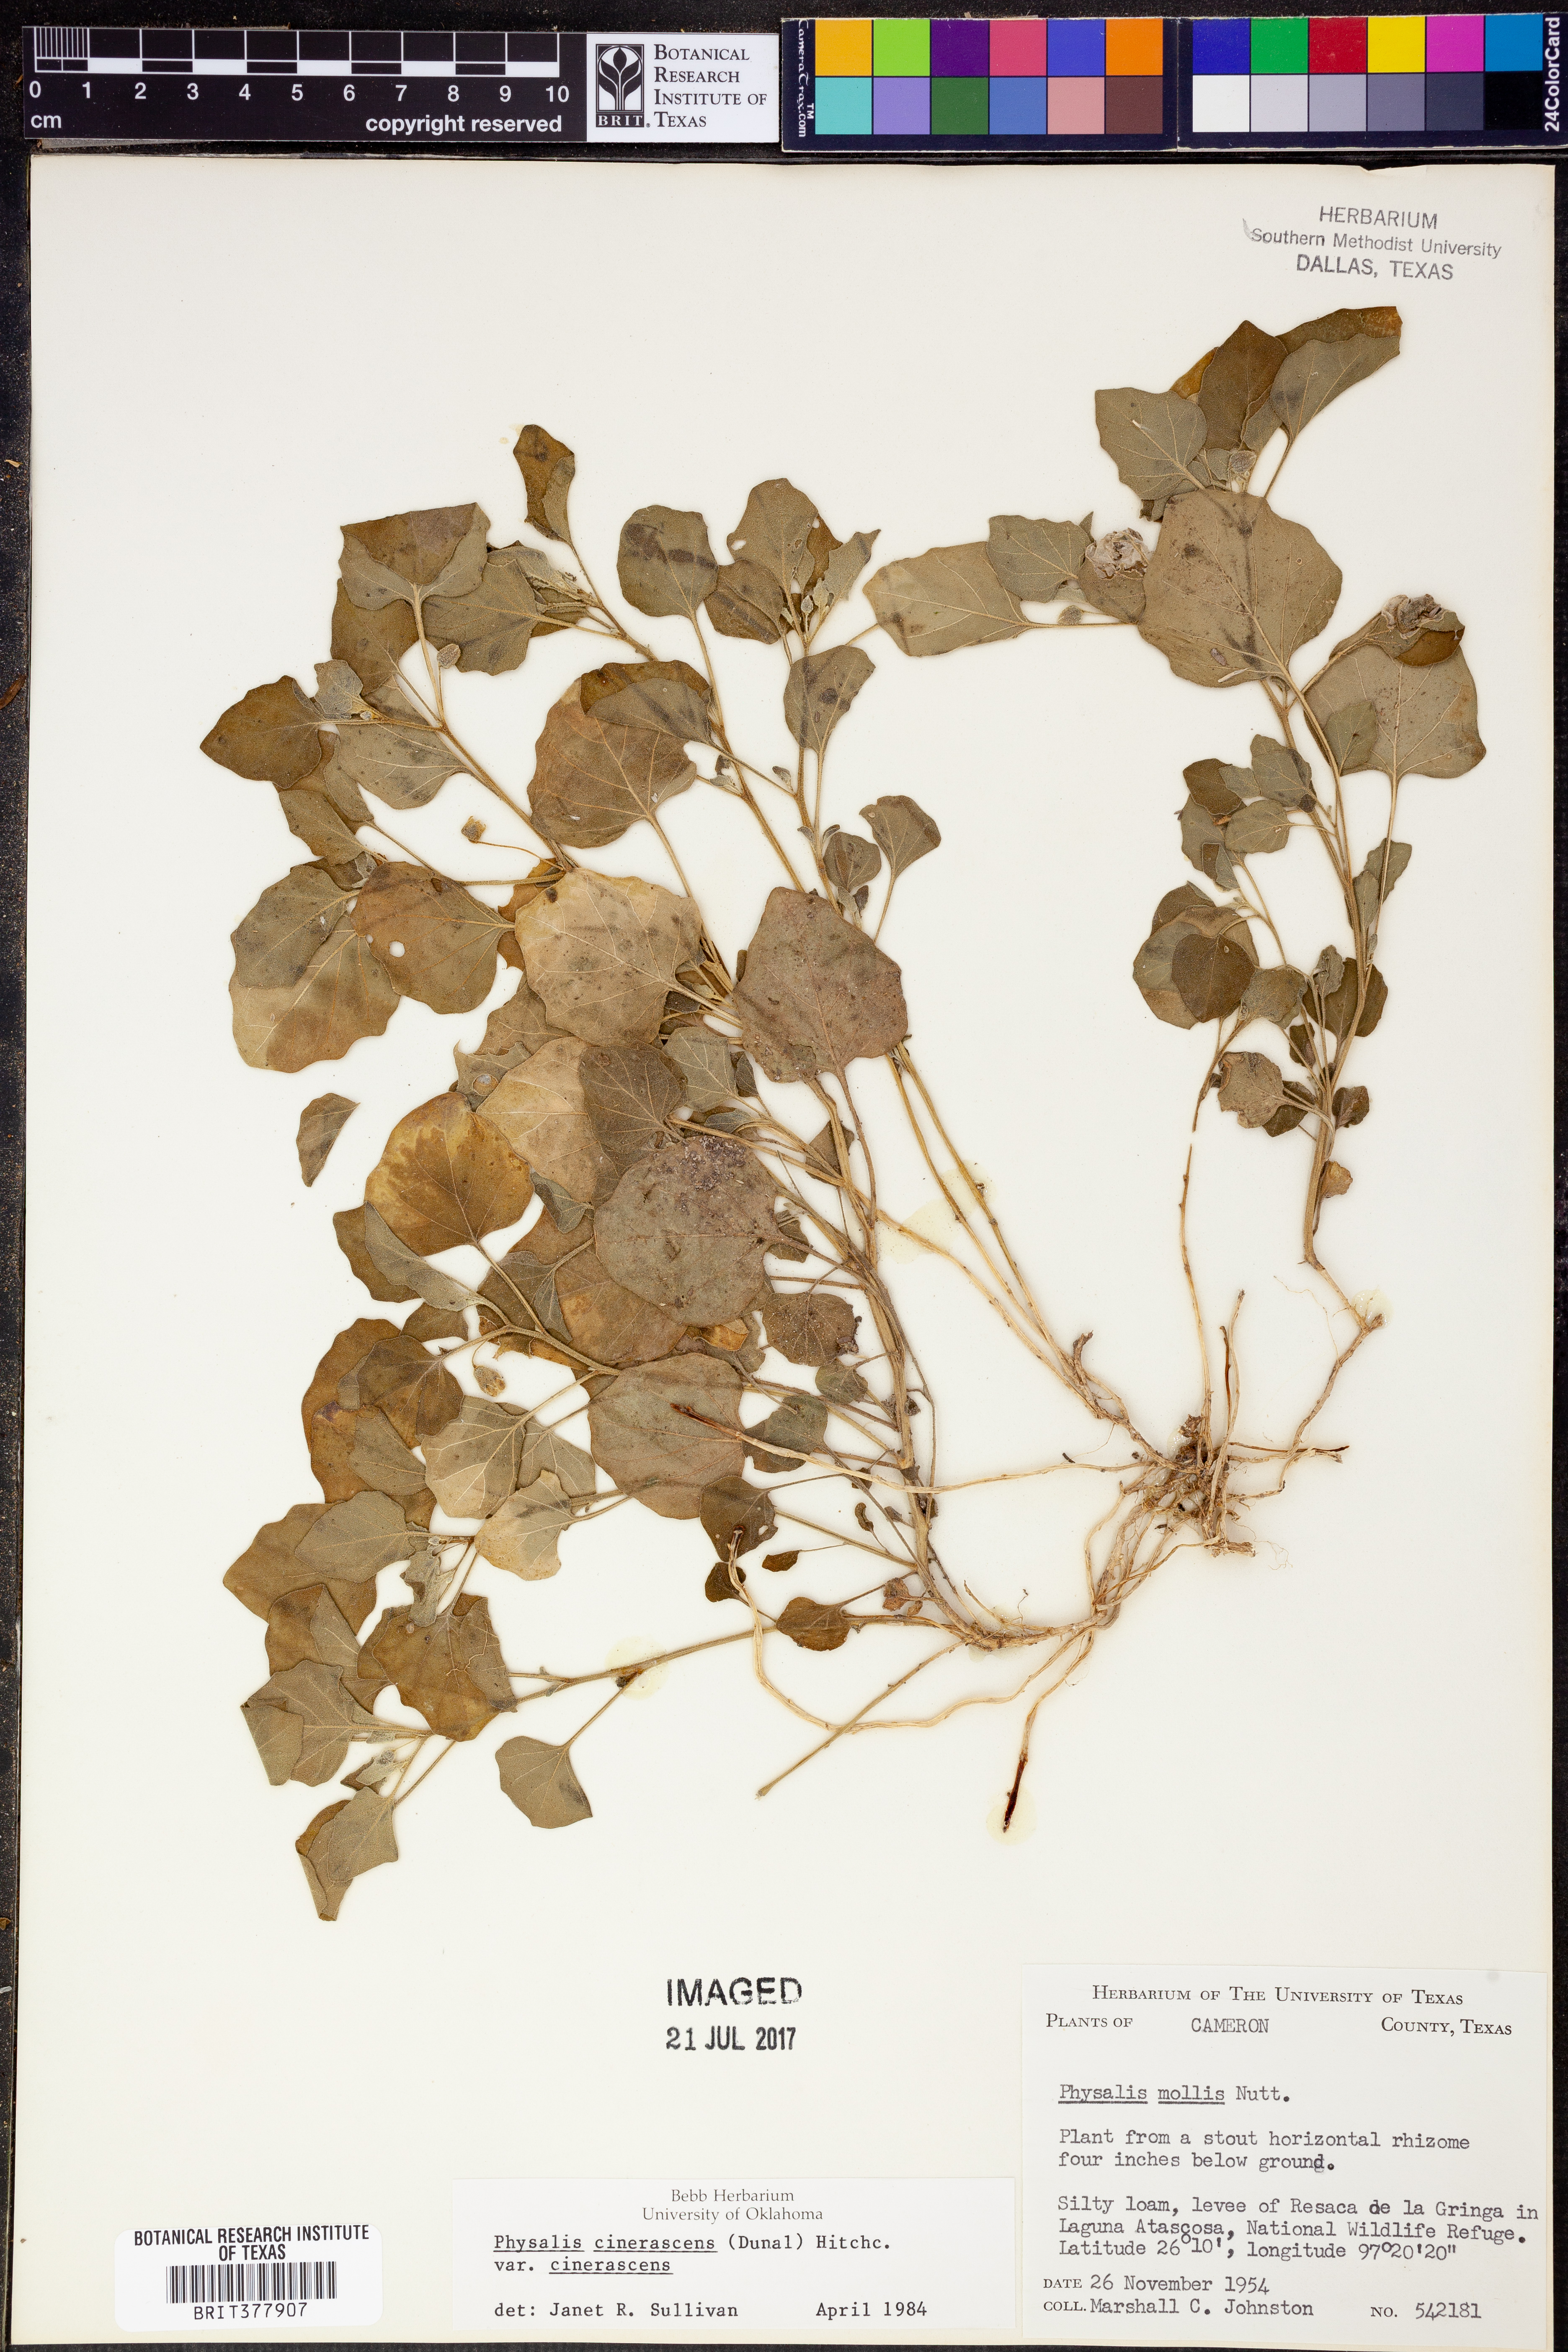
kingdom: Plantae
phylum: Tracheophyta
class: Magnoliopsida
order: Solanales
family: Solanaceae
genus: Physalis
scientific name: Physalis cinerascens
